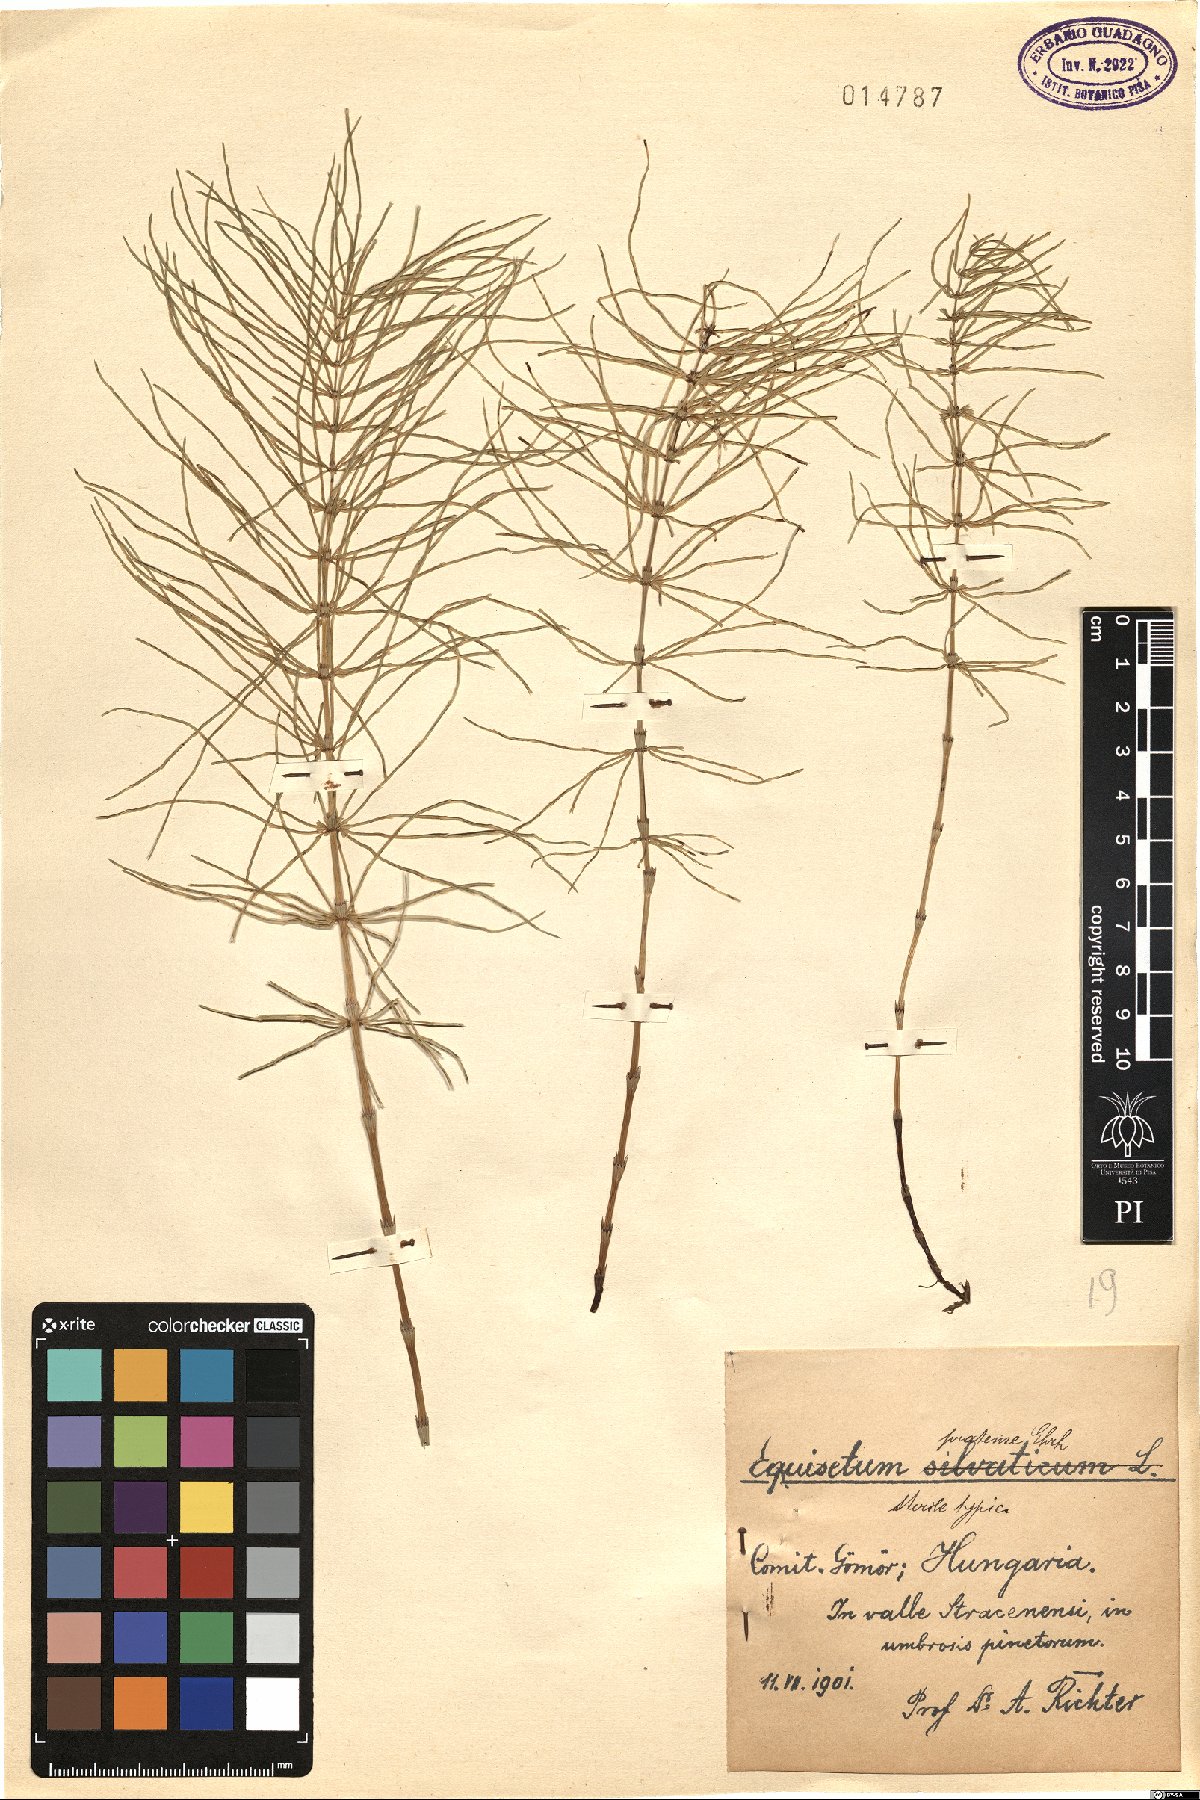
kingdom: Plantae
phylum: Tracheophyta
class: Polypodiopsida
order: Equisetales
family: Equisetaceae
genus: Equisetum
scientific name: Equisetum pratense
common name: Meadow horsetail
